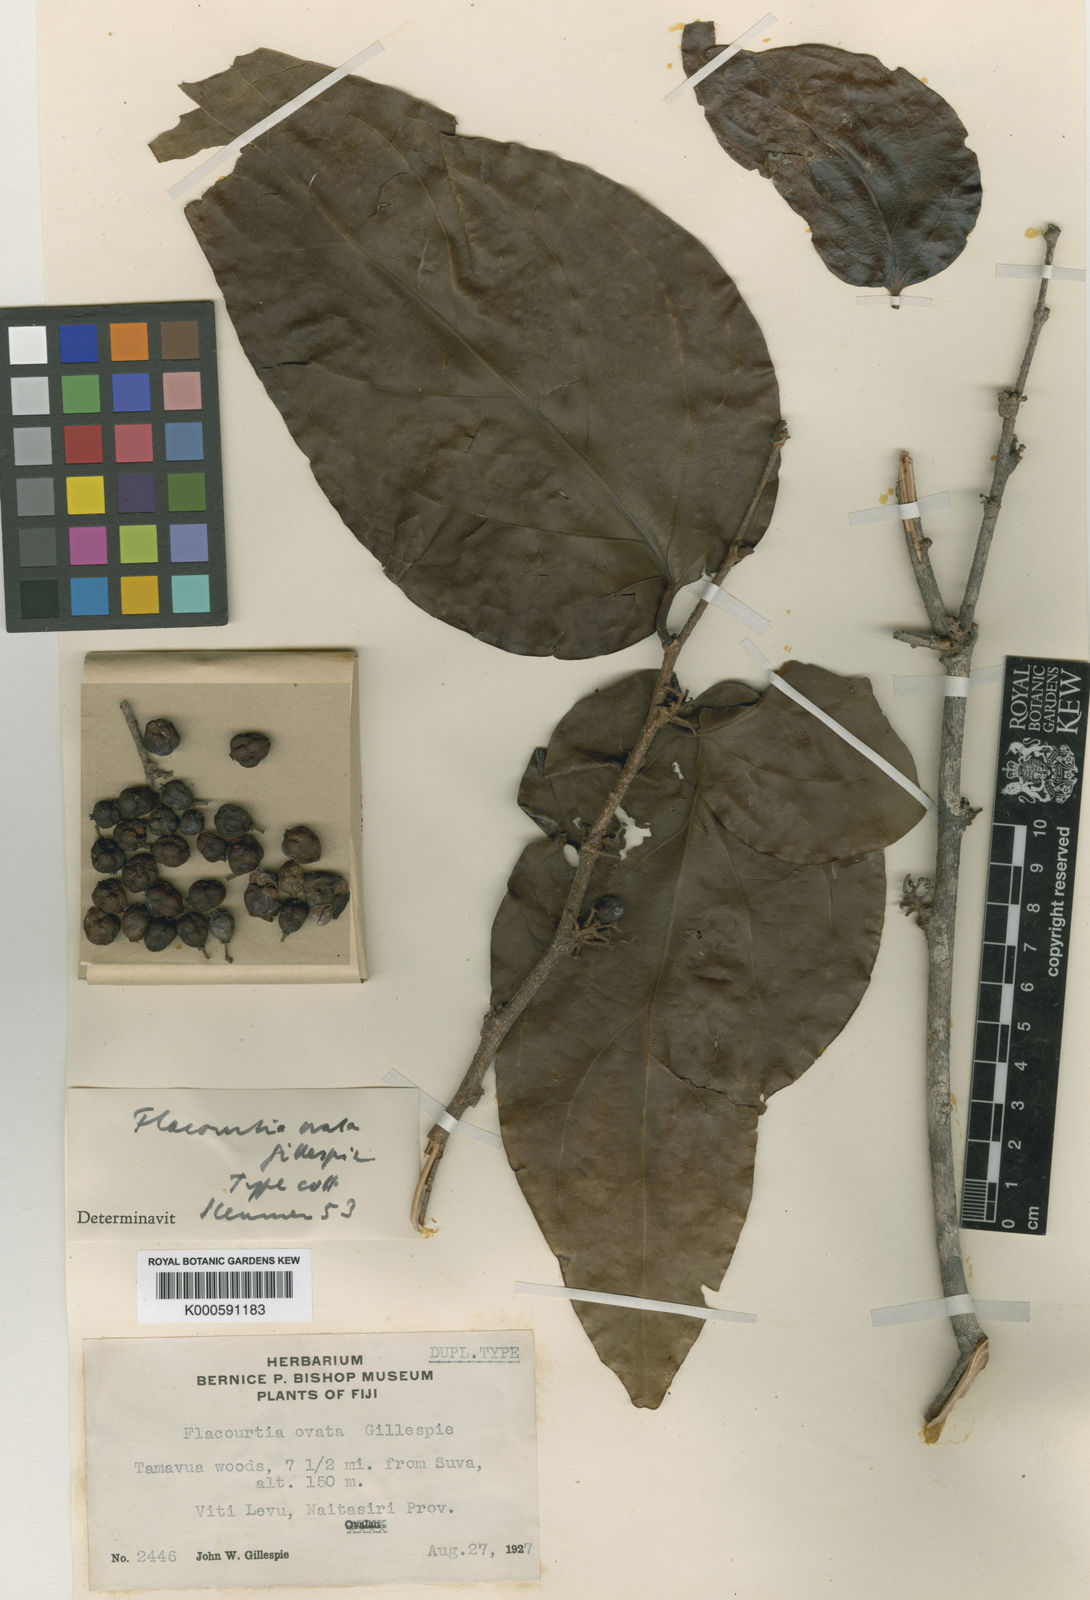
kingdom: Plantae
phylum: Tracheophyta
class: Magnoliopsida
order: Malpighiales
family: Salicaceae
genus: Flacourtia
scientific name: Flacourtia vitiensis
